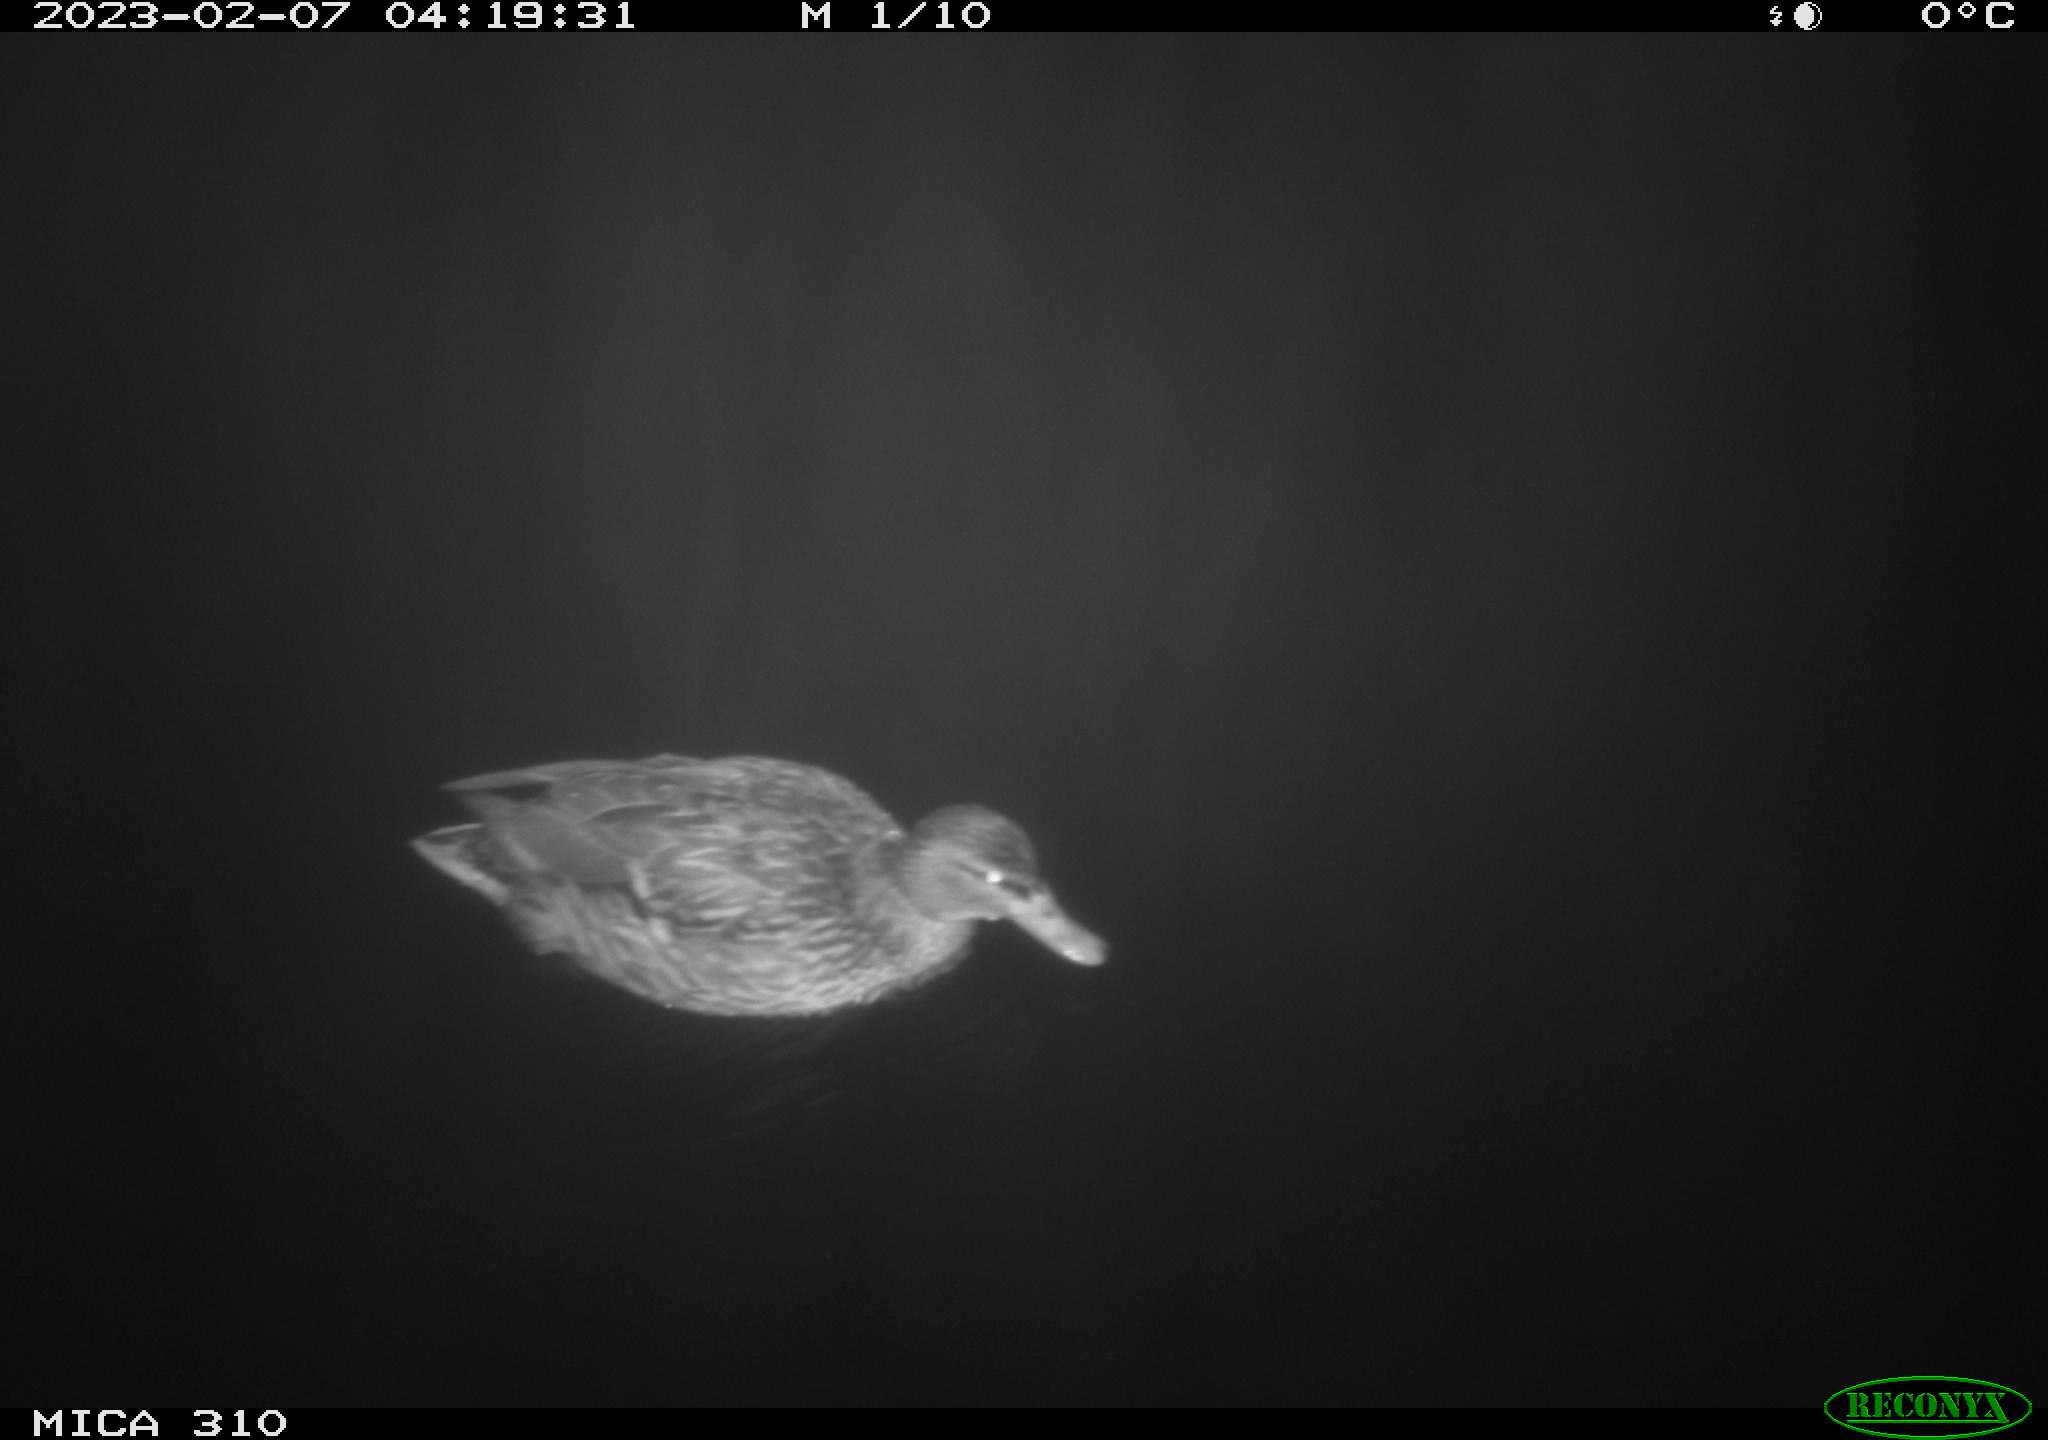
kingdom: Animalia
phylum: Chordata
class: Aves
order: Anseriformes
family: Anatidae
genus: Anas
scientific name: Anas
